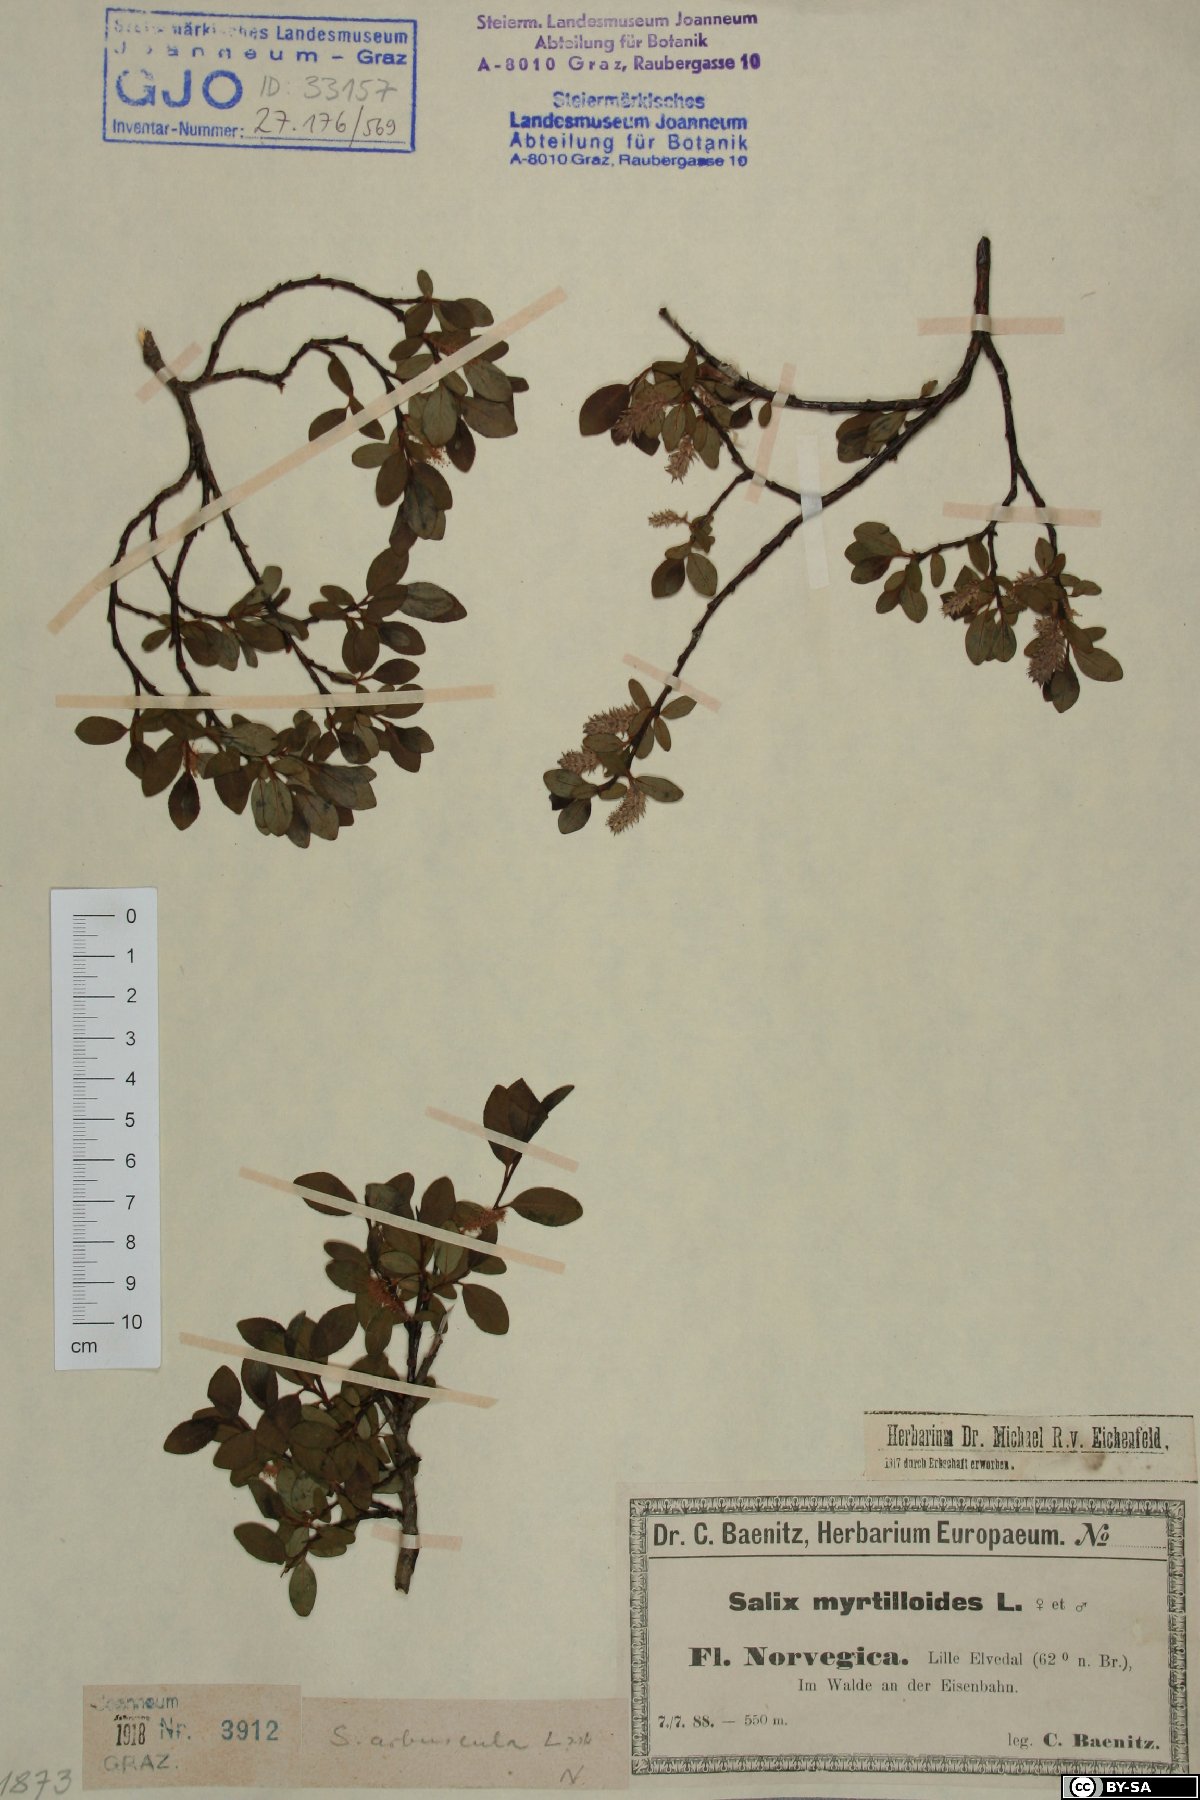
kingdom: Plantae
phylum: Tracheophyta
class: Magnoliopsida
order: Malpighiales
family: Salicaceae
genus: Salix
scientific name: Salix arbuscula
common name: Mountain willow
